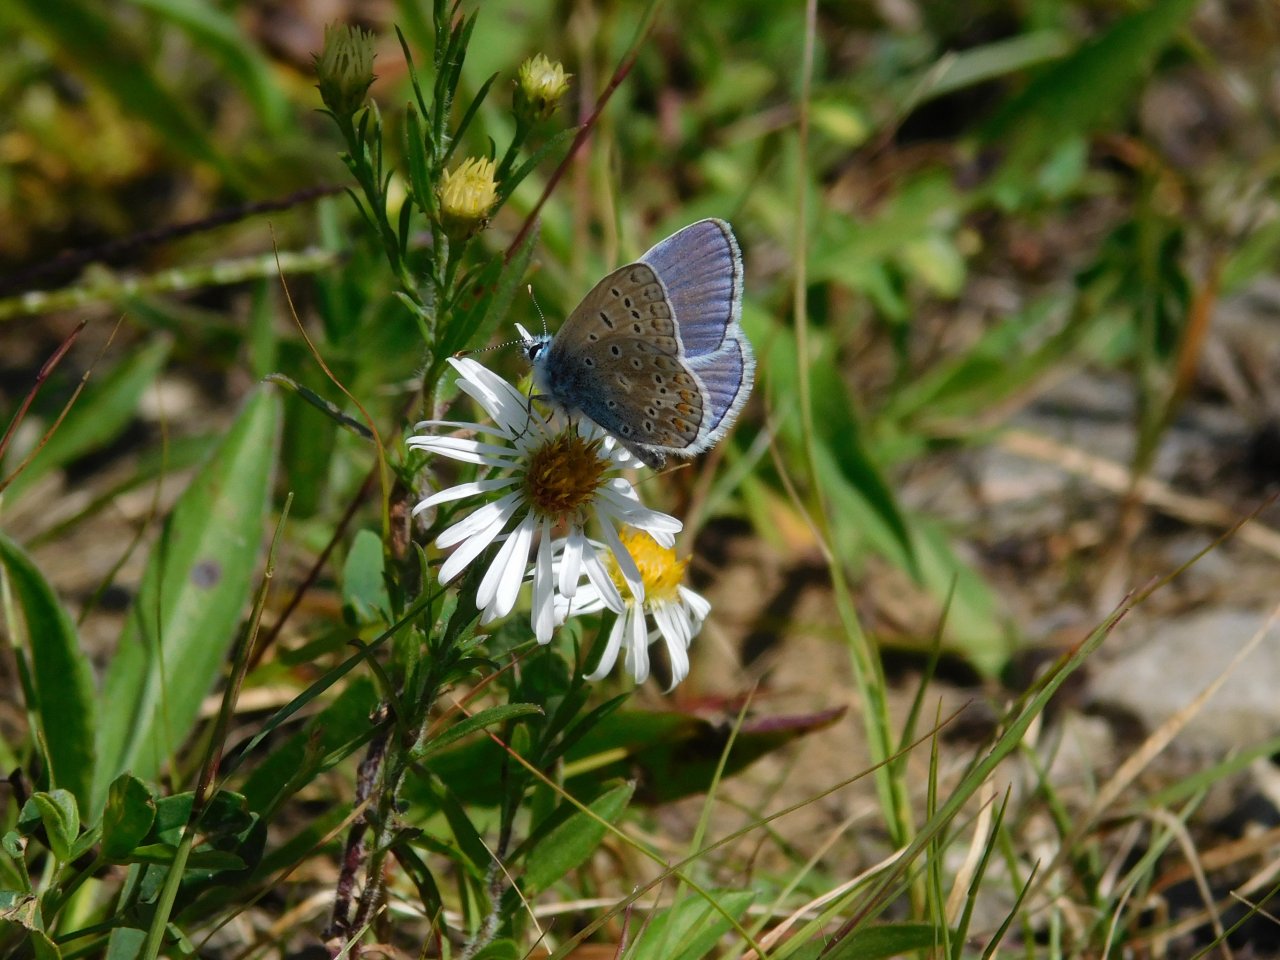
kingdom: Animalia
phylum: Arthropoda
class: Insecta
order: Lepidoptera
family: Lycaenidae
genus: Polyommatus
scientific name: Polyommatus icarus
